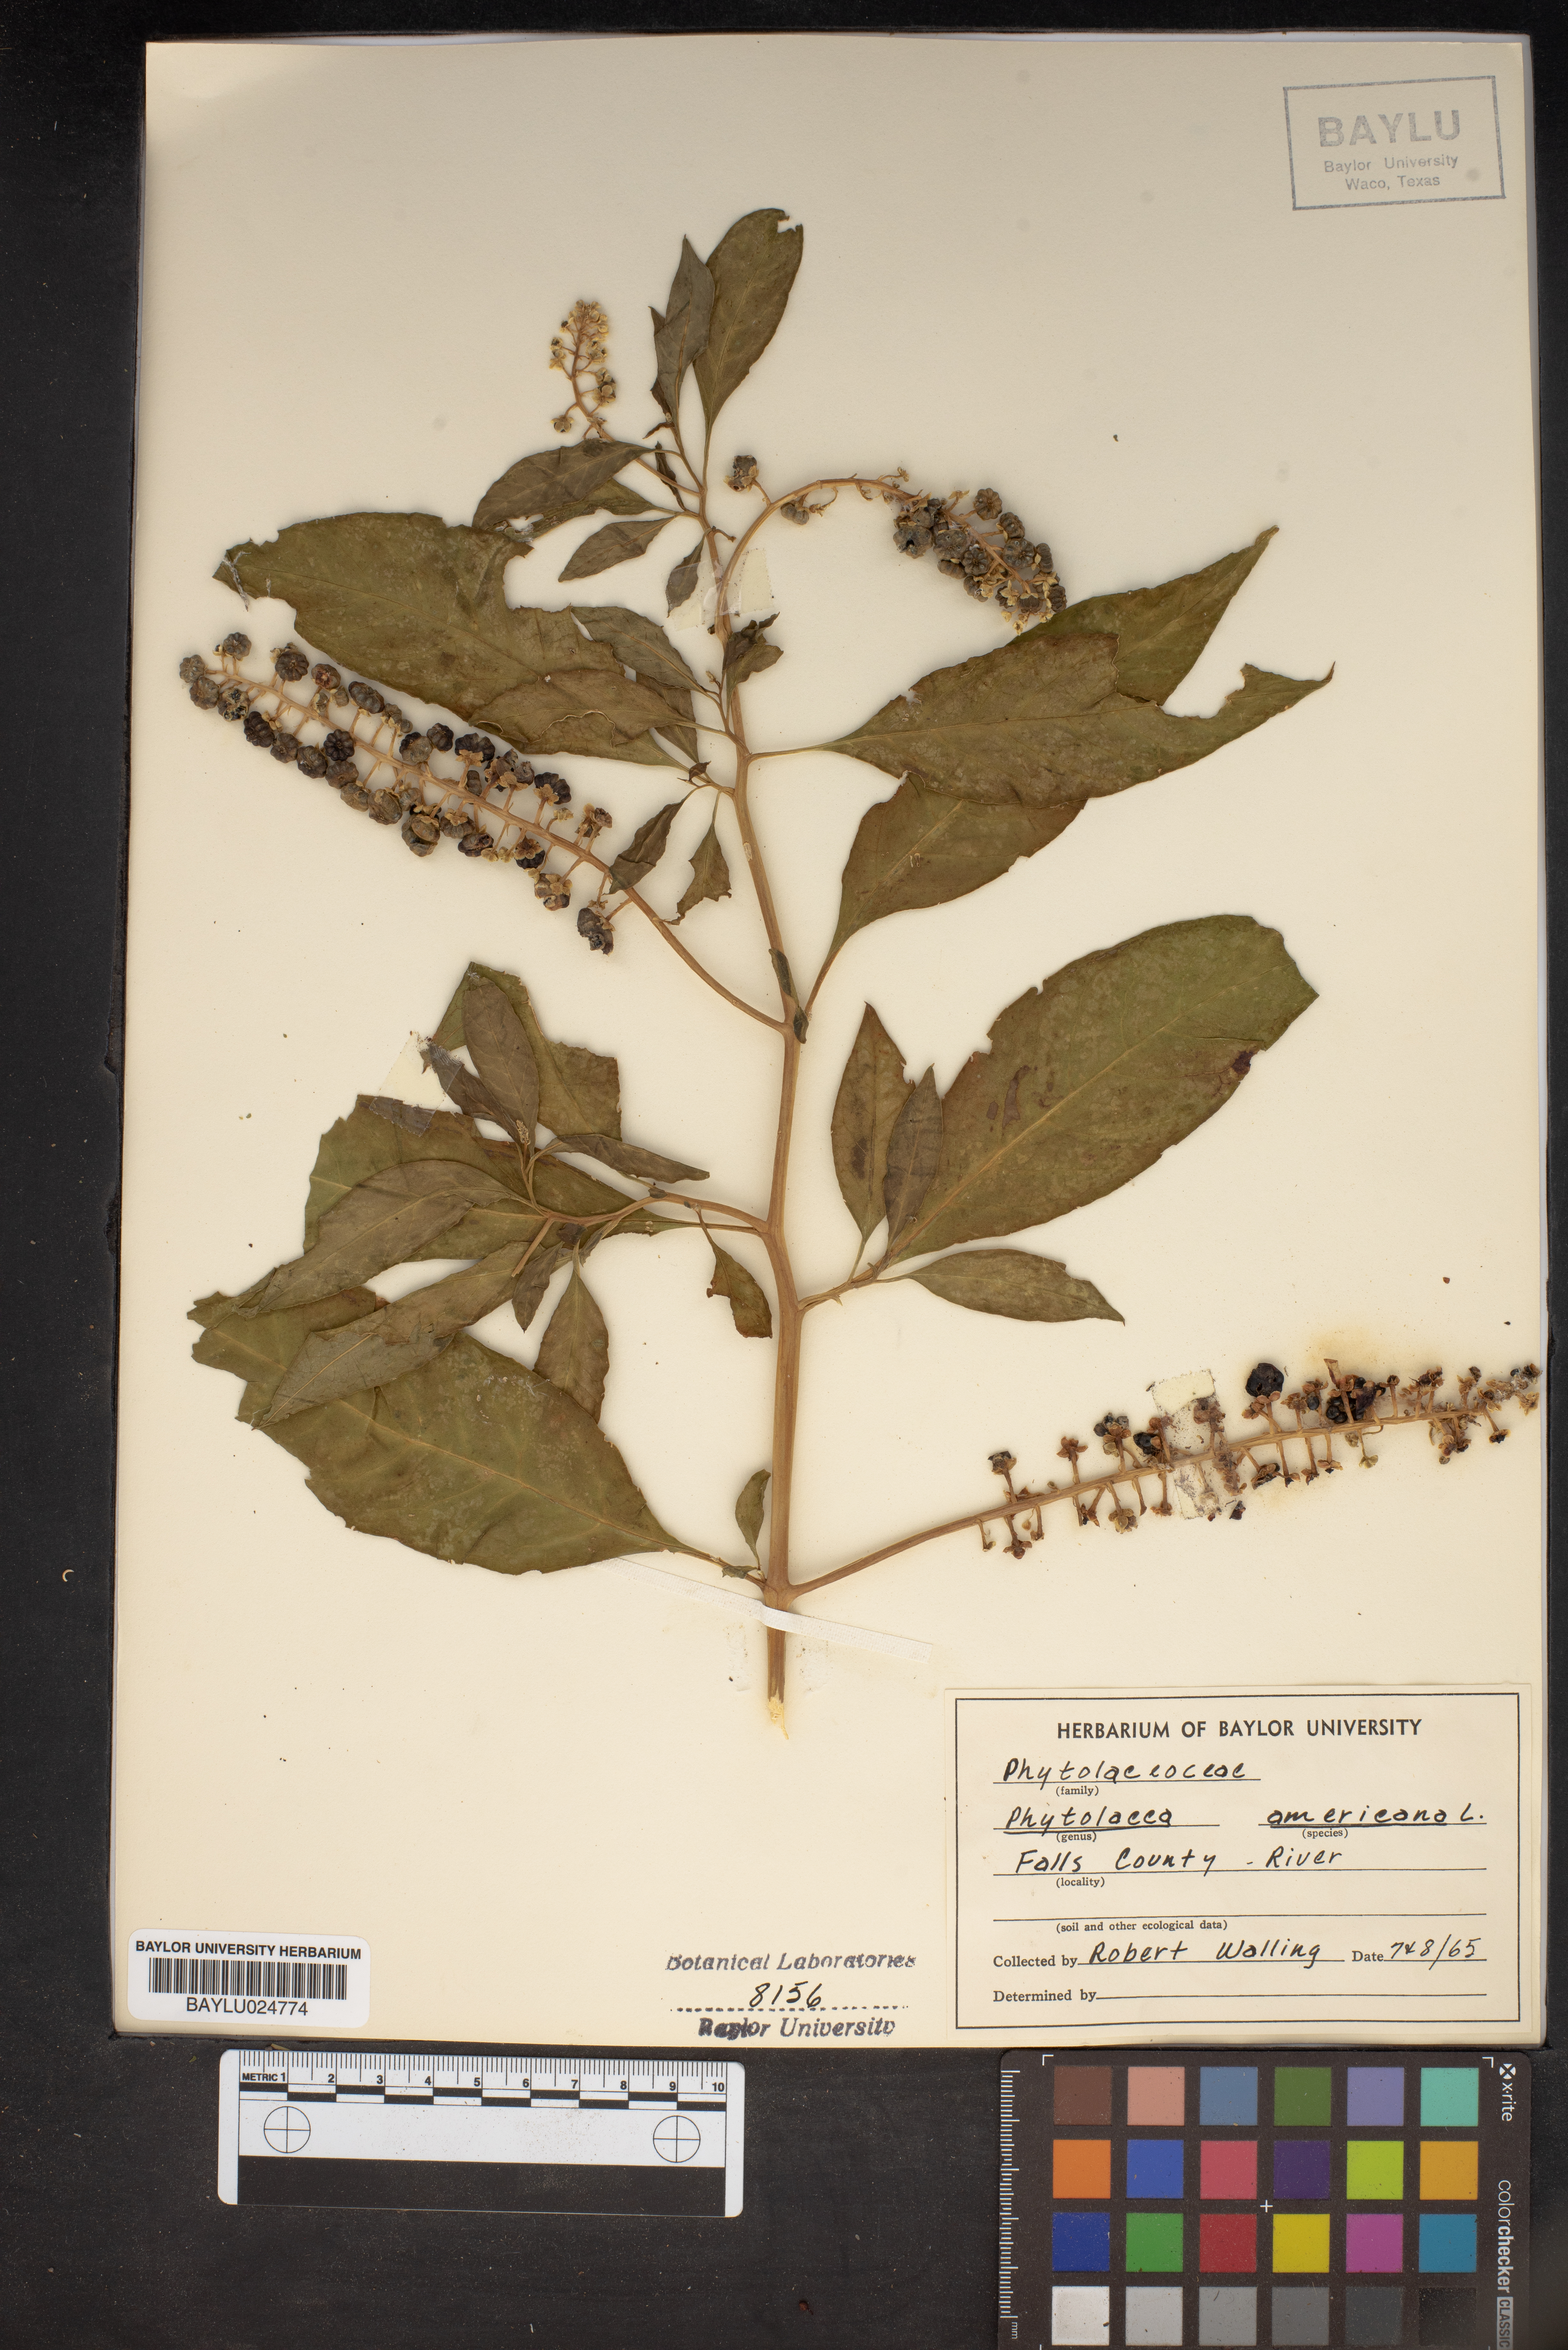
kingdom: Plantae
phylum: Tracheophyta
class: Magnoliopsida
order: Caryophyllales
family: Phytolaccaceae
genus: Phytolacca
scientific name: Phytolacca americana
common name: American pokeweed
